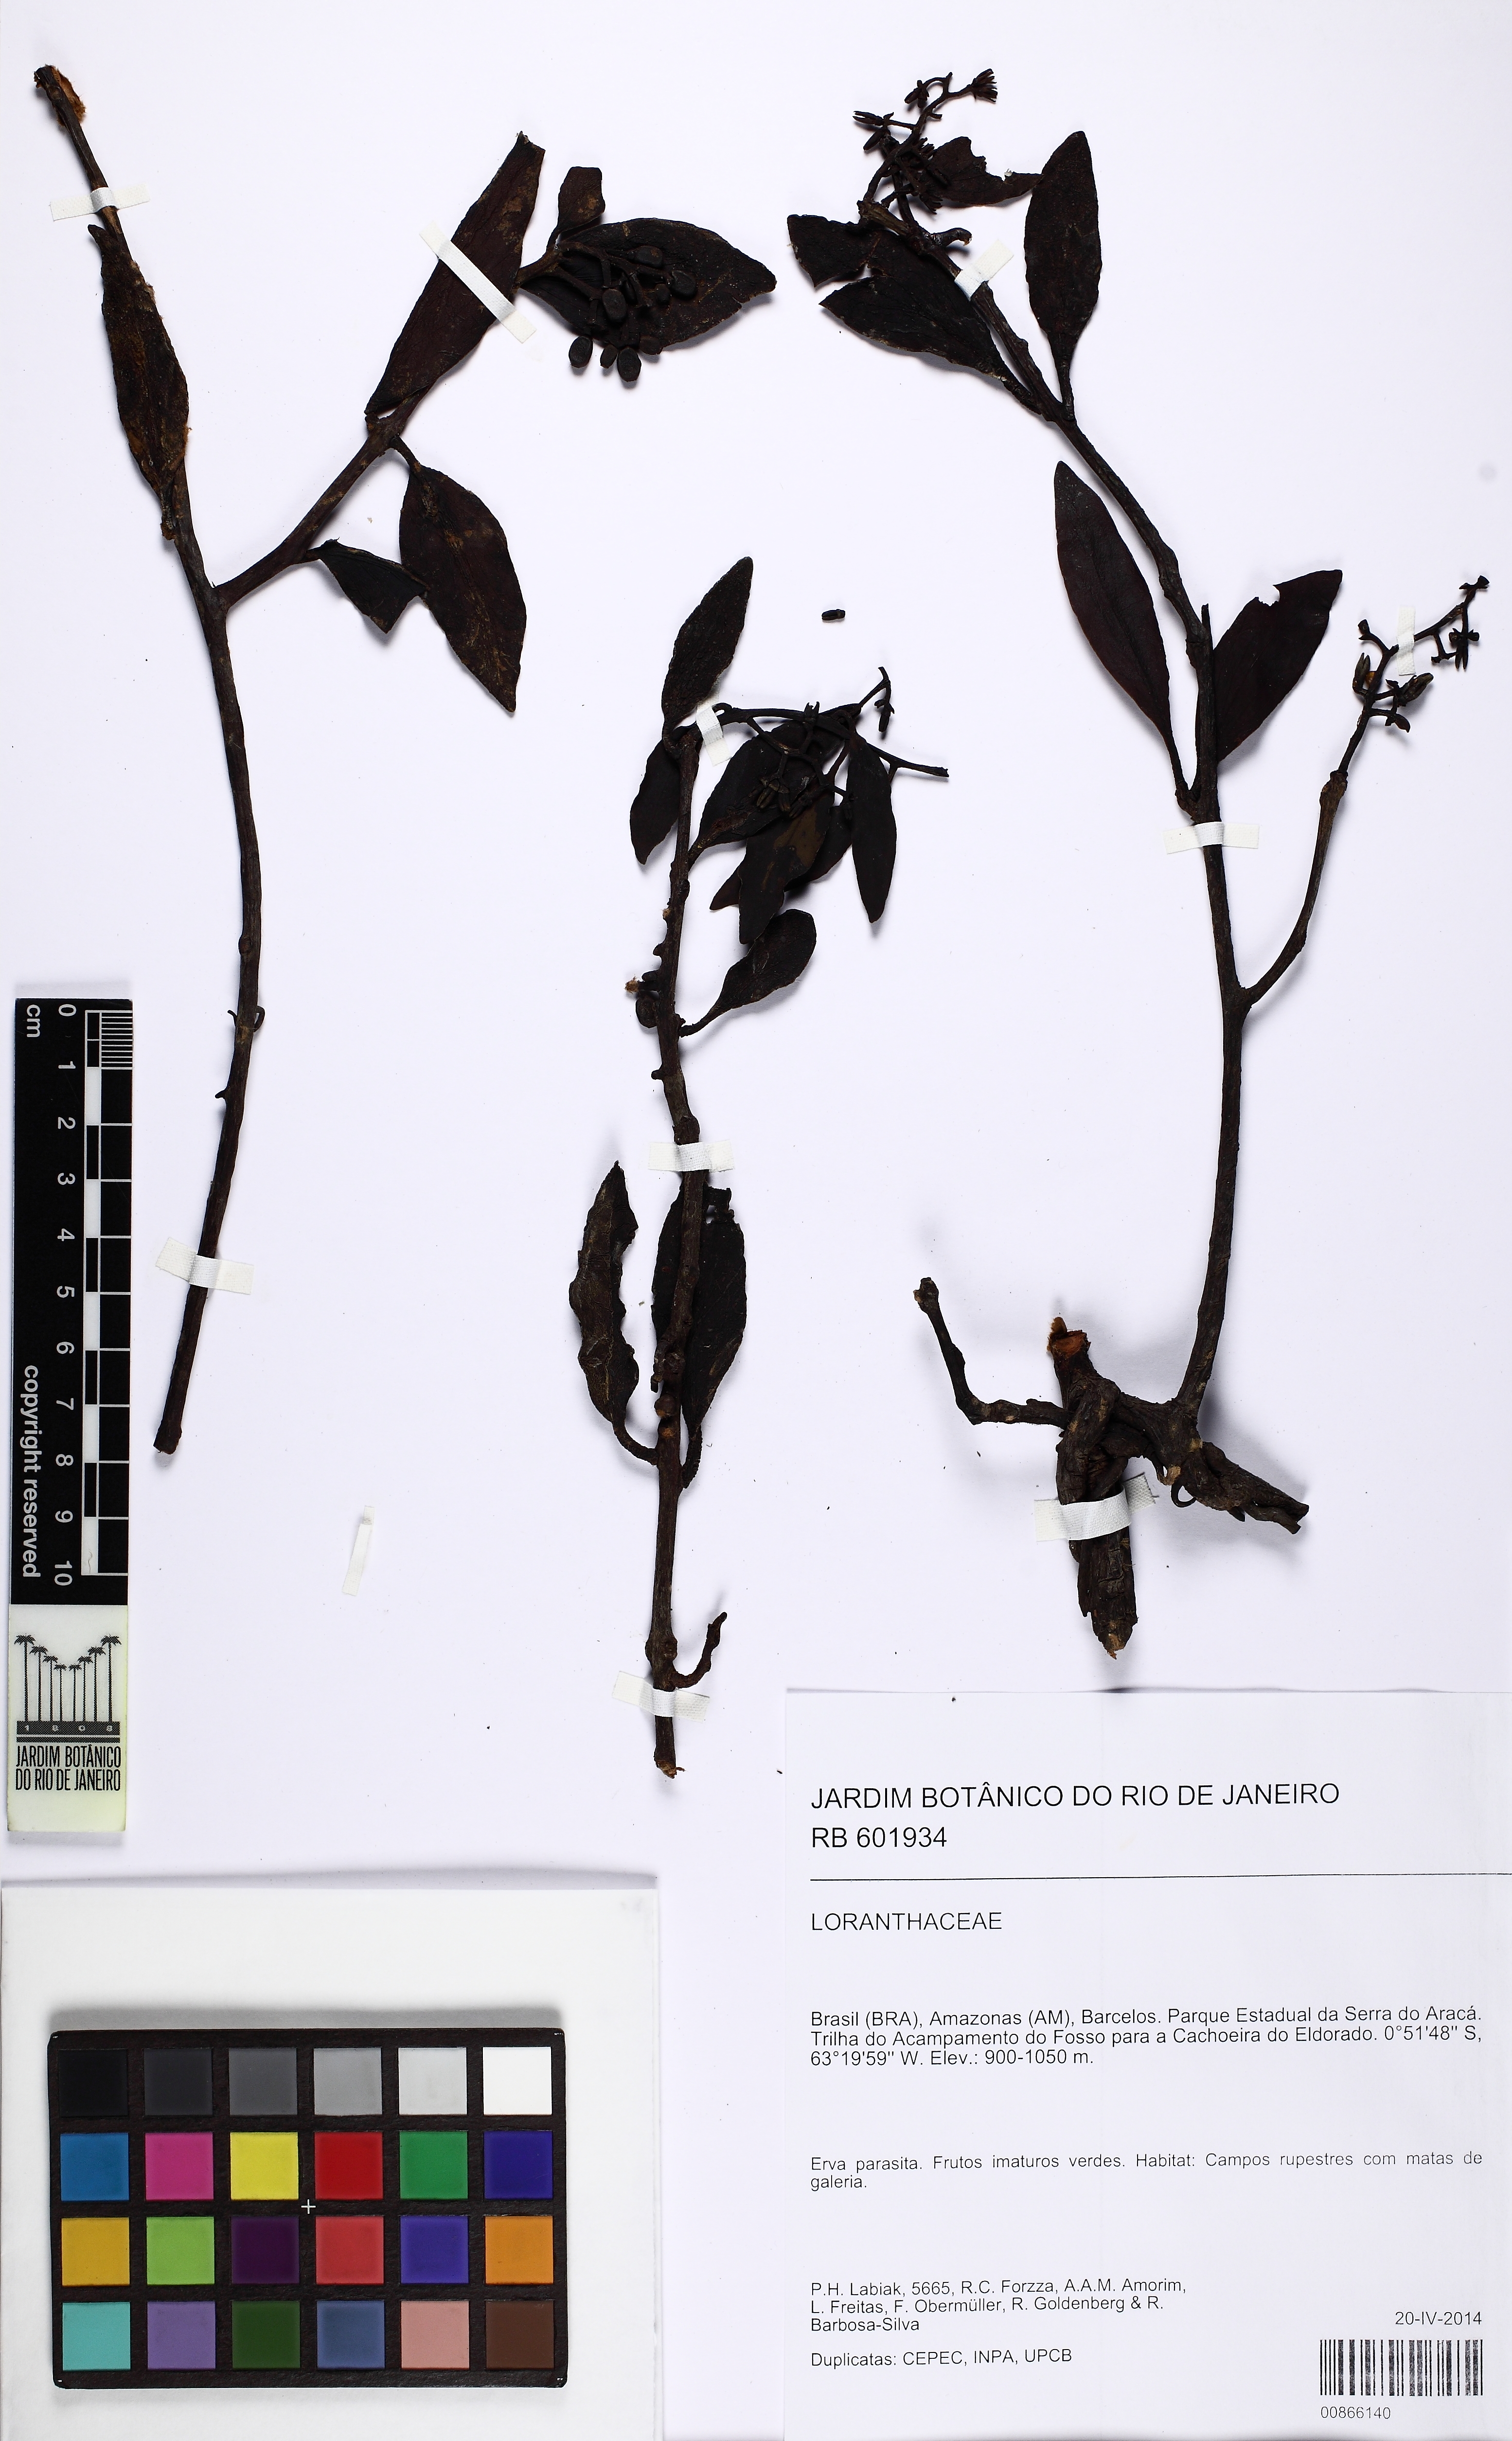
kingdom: Plantae
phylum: Tracheophyta
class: Magnoliopsida
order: Santalales
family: Loranthaceae
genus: Passovia
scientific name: Passovia lobaterae
